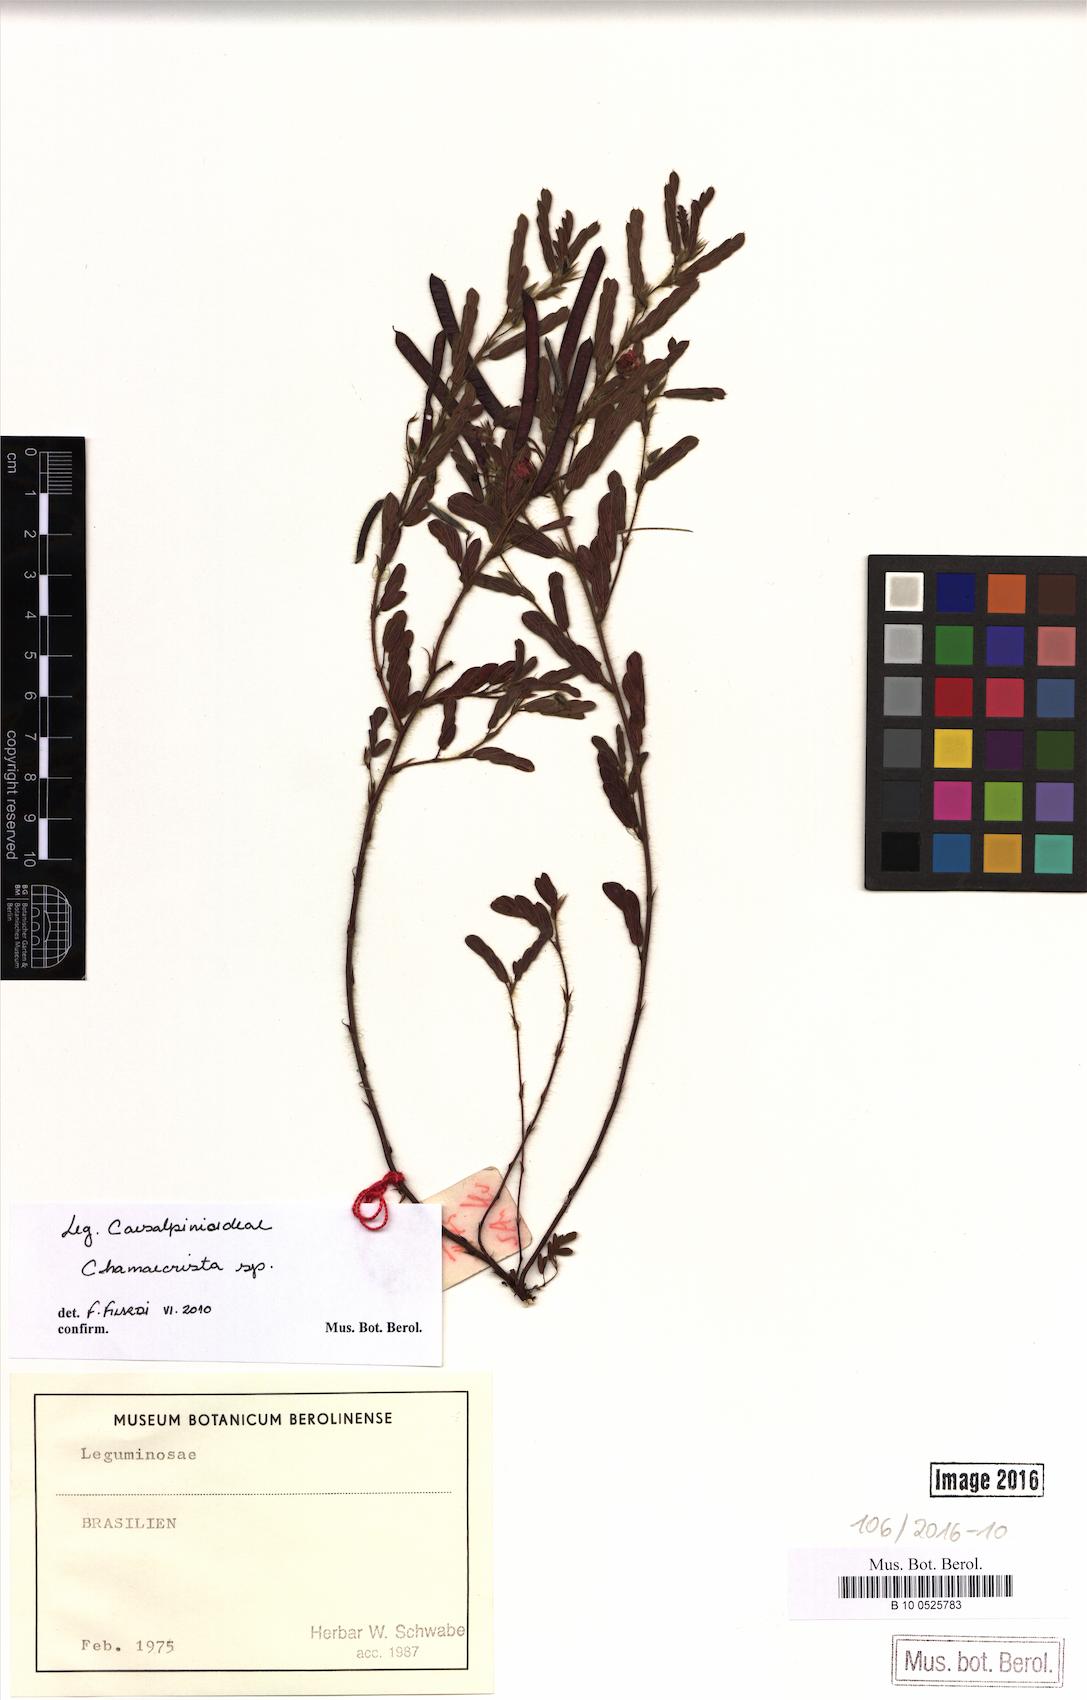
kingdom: Plantae
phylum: Tracheophyta
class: Magnoliopsida
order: Fabales
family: Fabaceae
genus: Chamaecrista
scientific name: Chamaecrista
